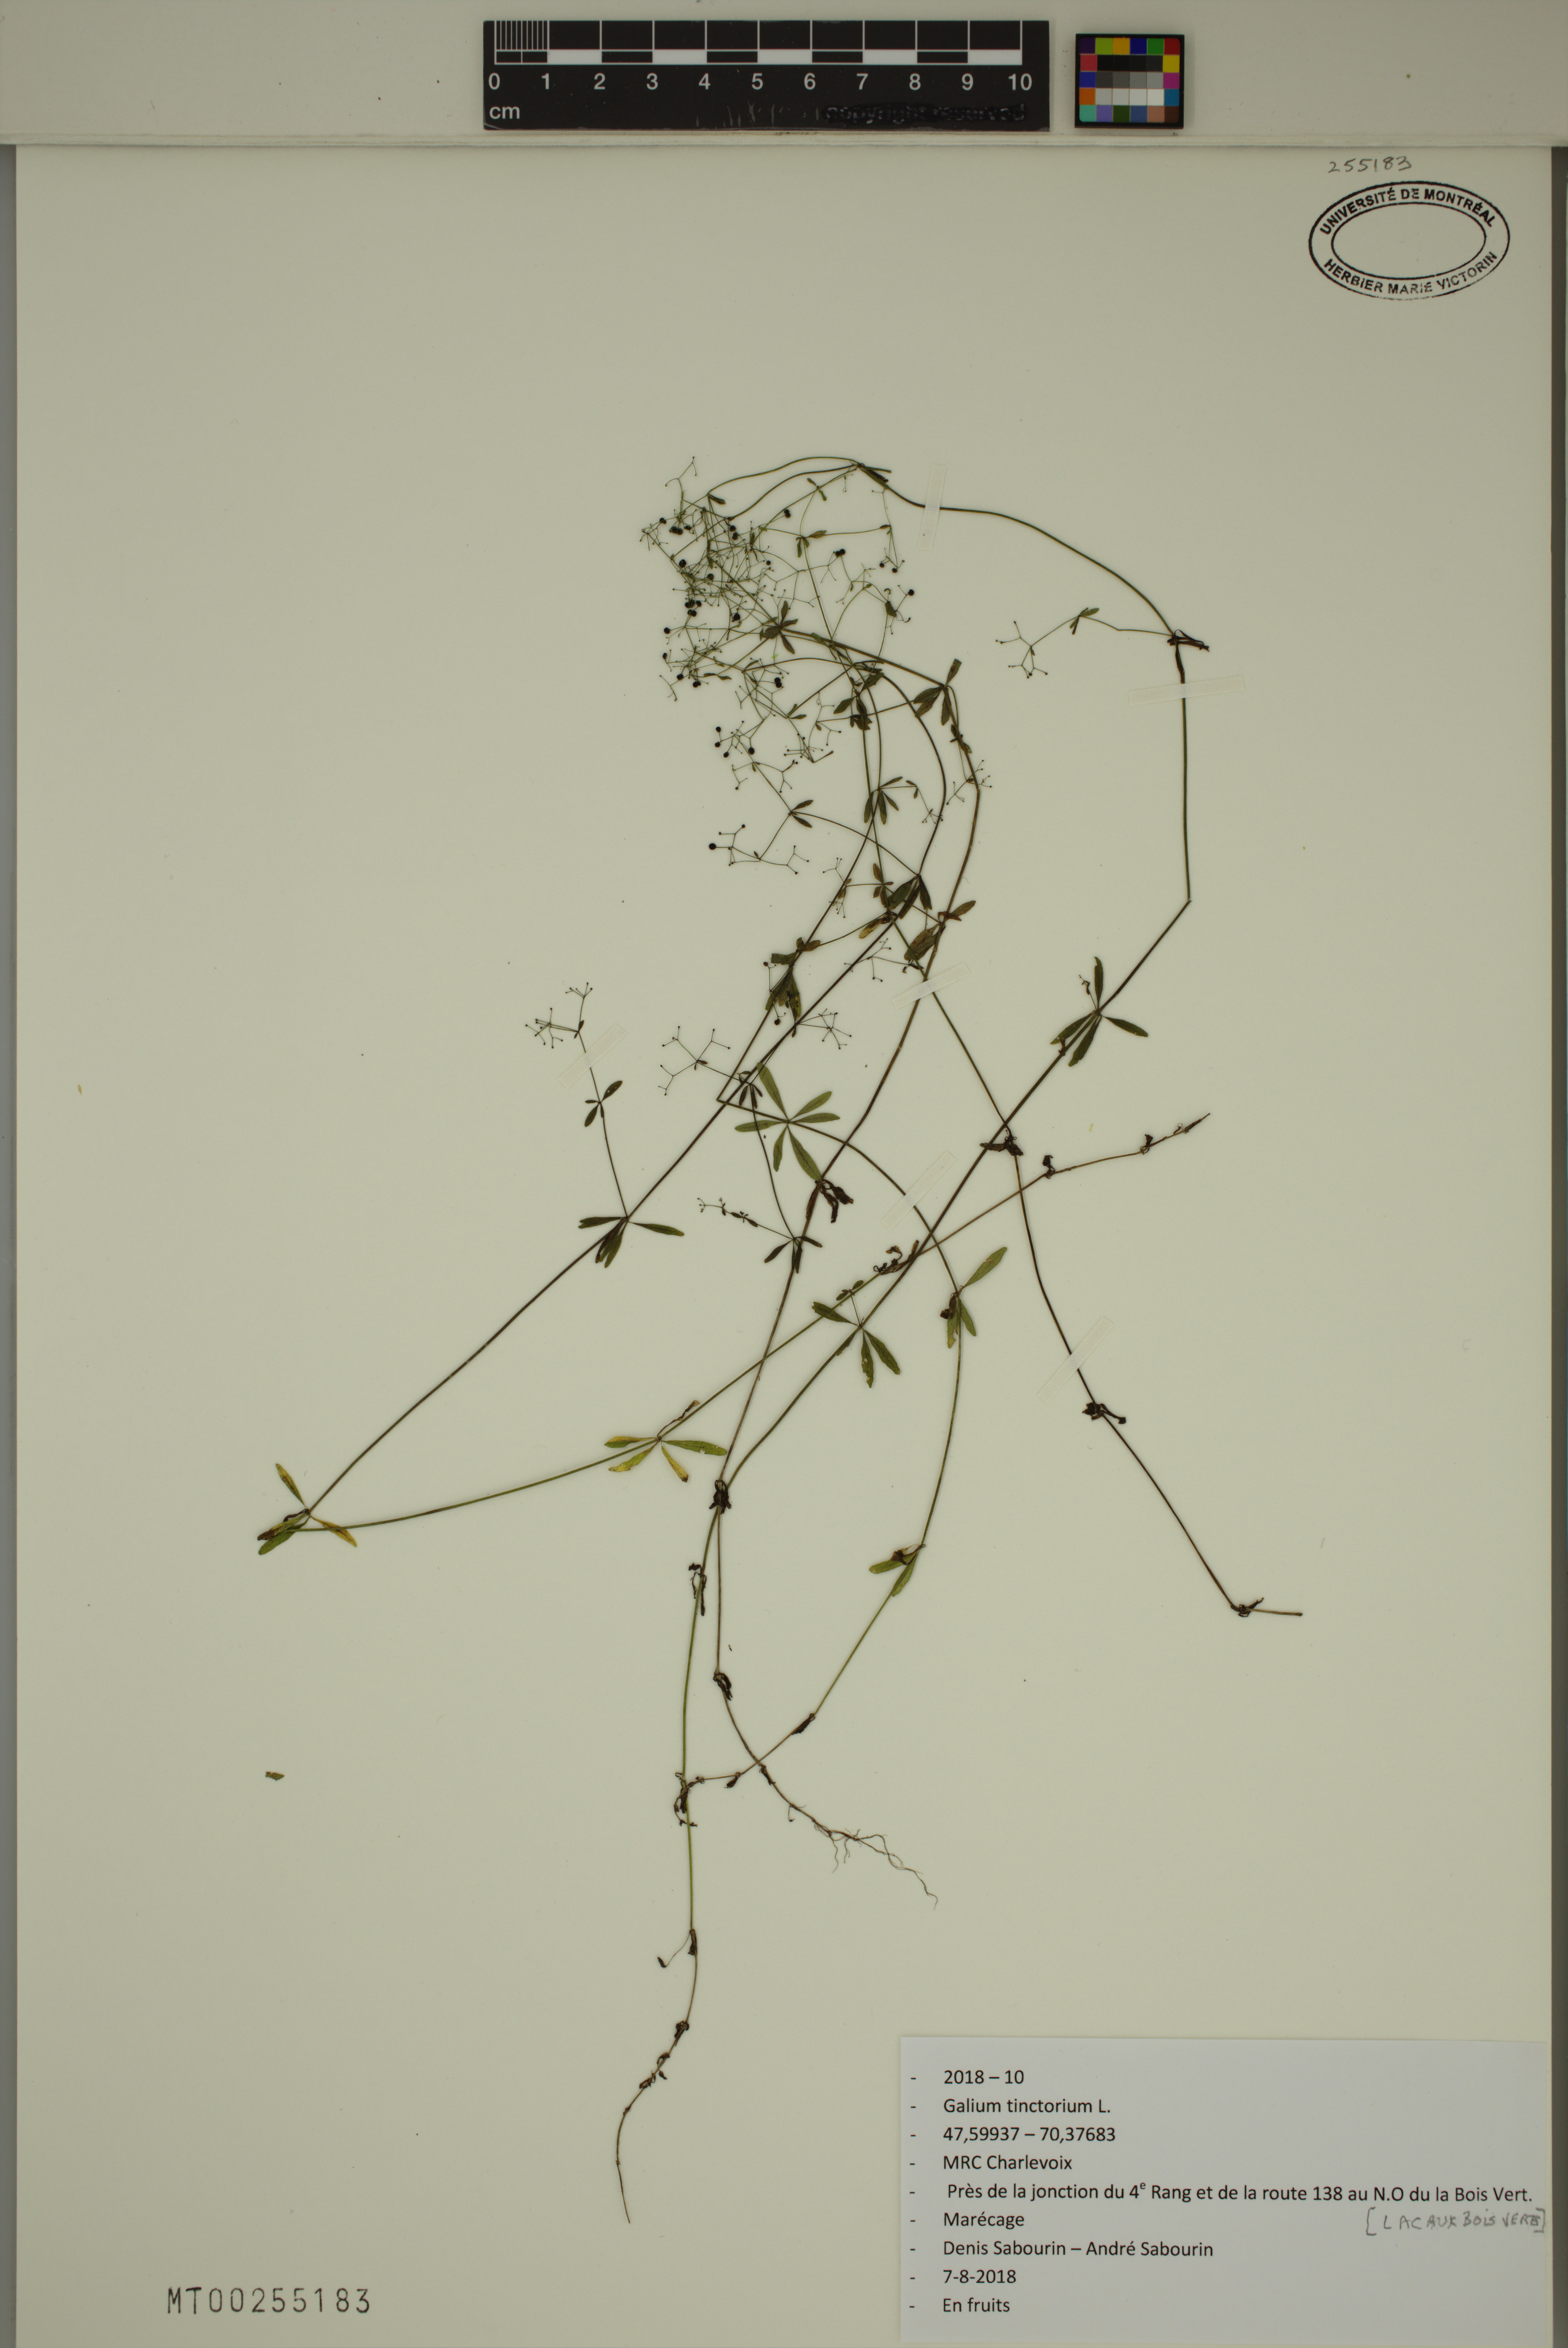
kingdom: Plantae
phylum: Tracheophyta
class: Magnoliopsida
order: Gentianales
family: Rubiaceae
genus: Galium
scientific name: Galium tinctorium
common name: Bedstraw
